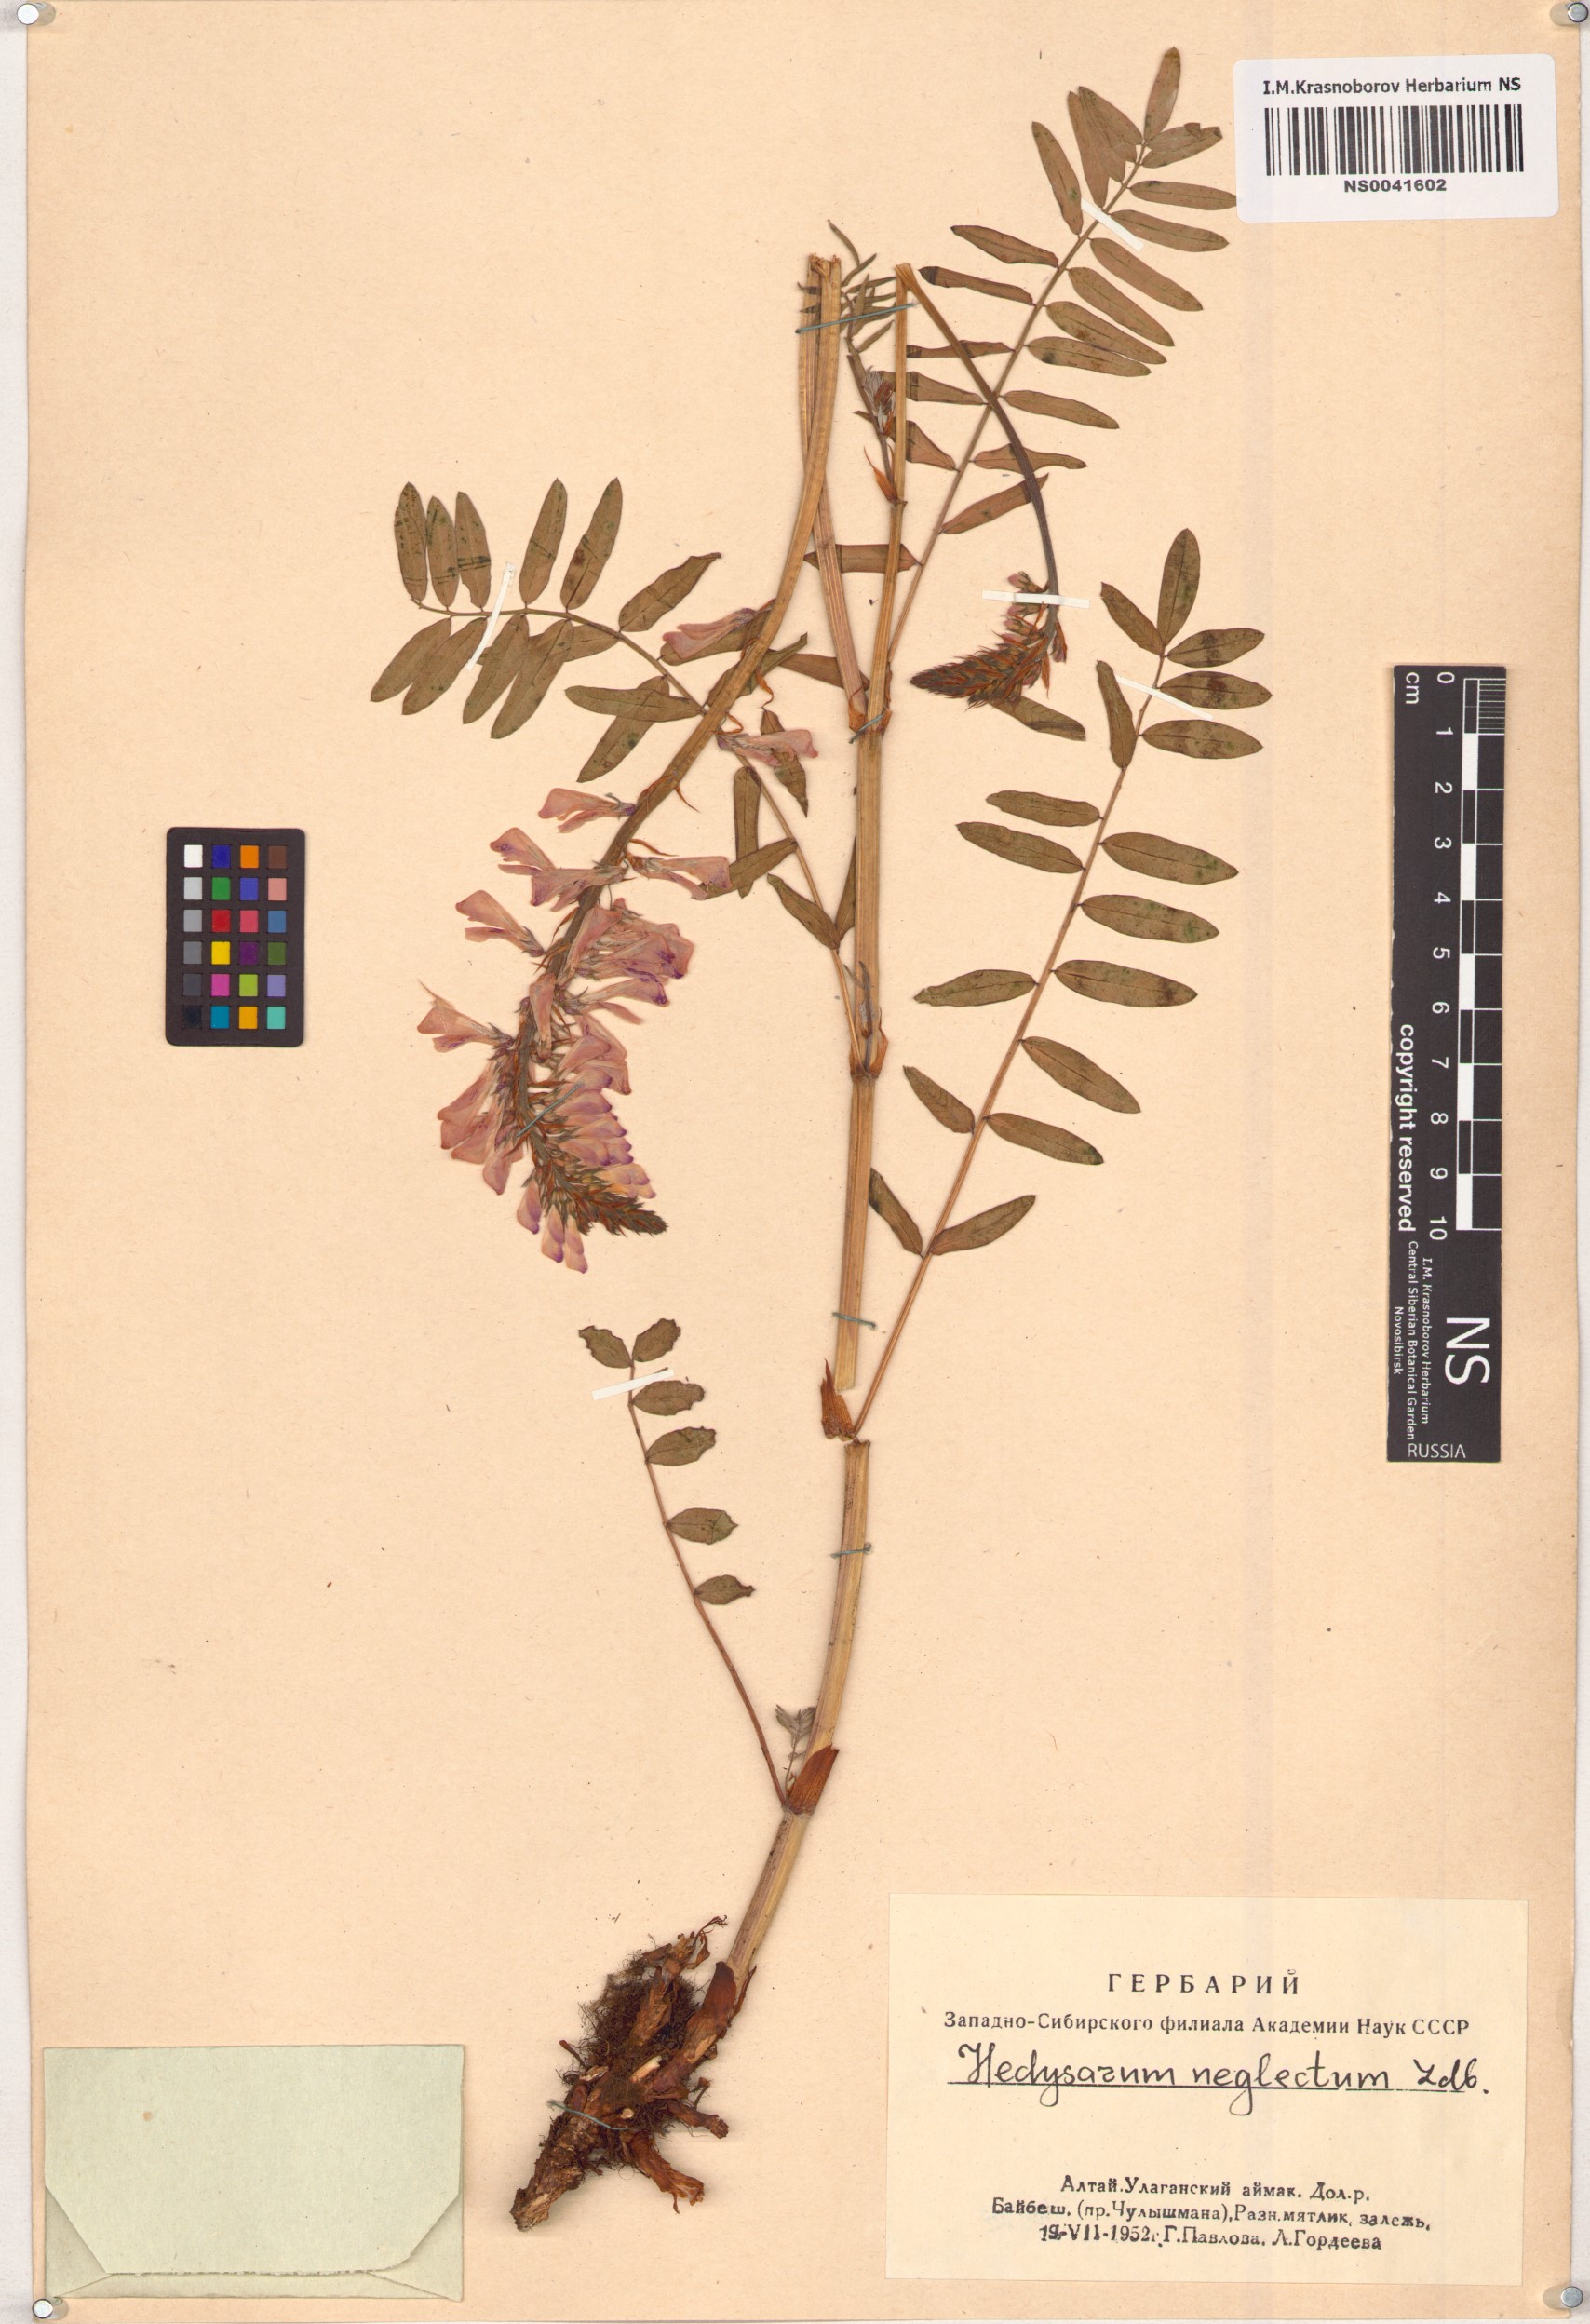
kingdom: Plantae
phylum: Tracheophyta
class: Magnoliopsida
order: Fabales
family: Fabaceae
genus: Hedysarum
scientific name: Hedysarum neglectum
